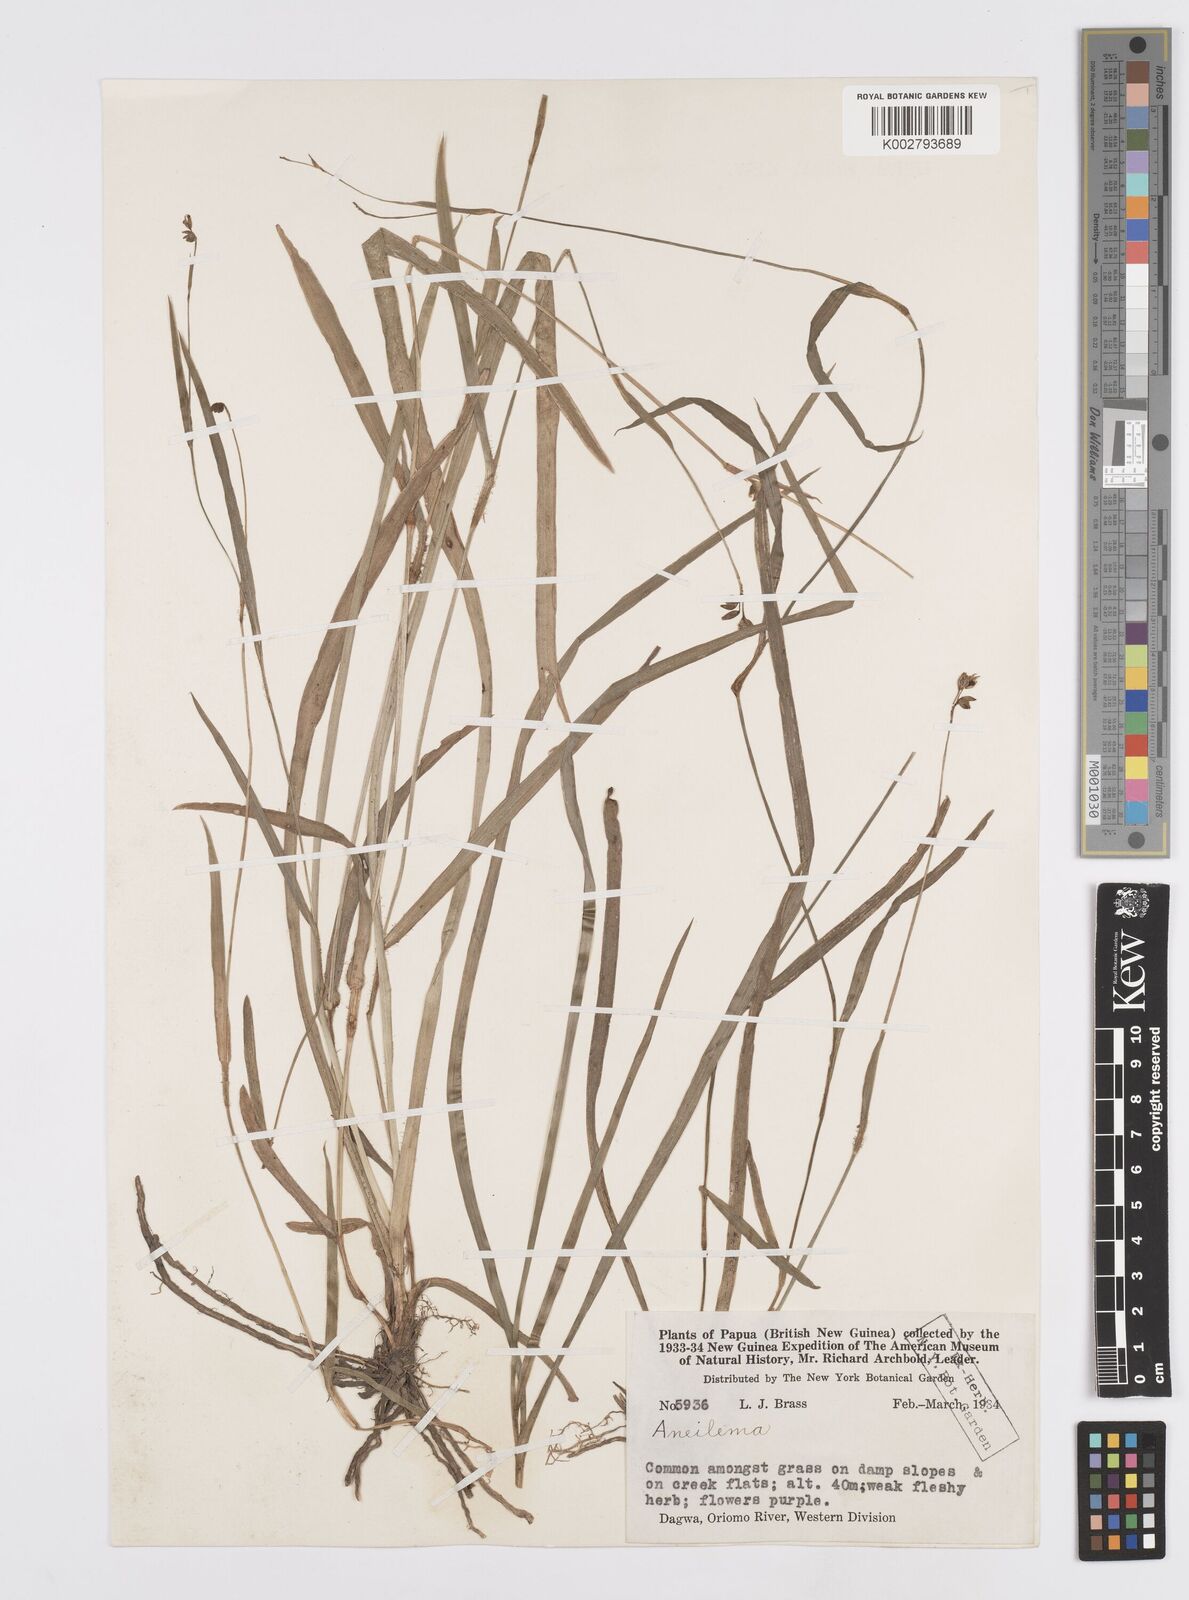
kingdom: Plantae
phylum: Tracheophyta
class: Liliopsida
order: Commelinales
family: Commelinaceae
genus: Murdannia
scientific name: Murdannia
